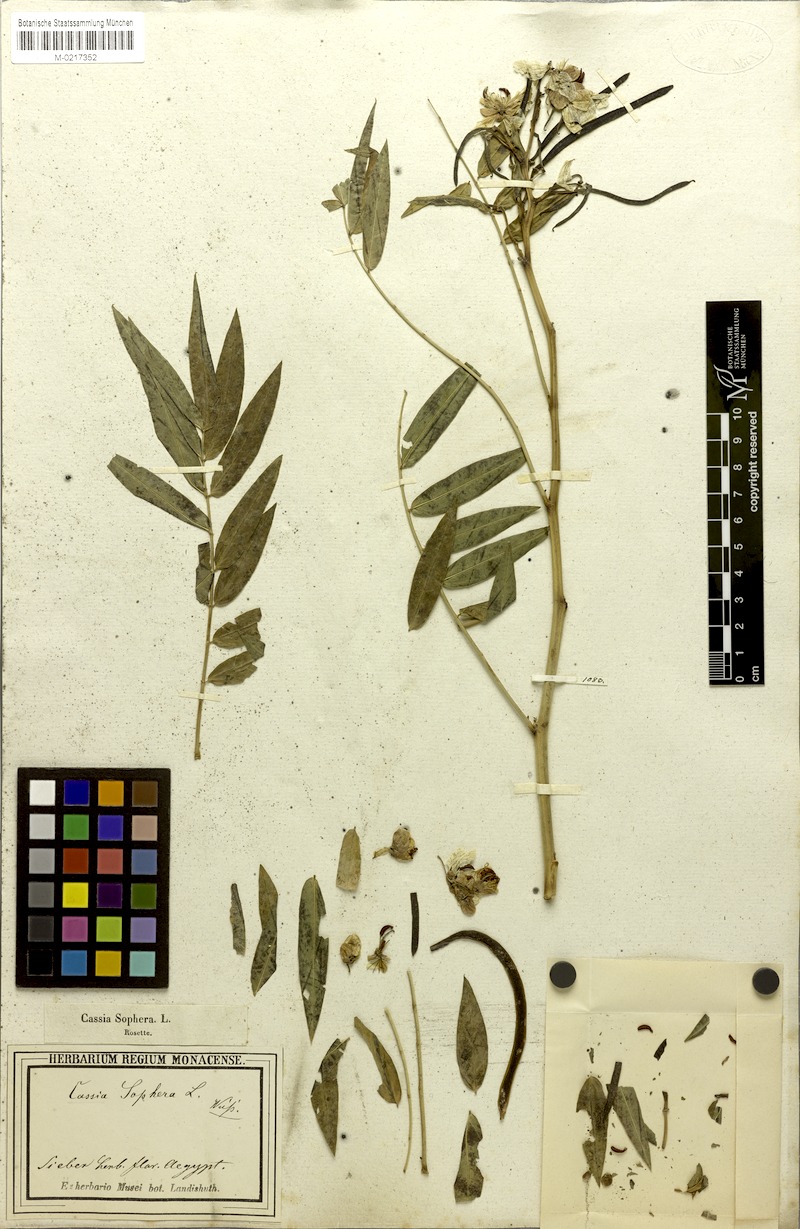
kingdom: Plantae
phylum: Tracheophyta
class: Magnoliopsida
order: Fabales
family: Fabaceae
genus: Senna
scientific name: Senna occidentalis
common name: Septicweed
